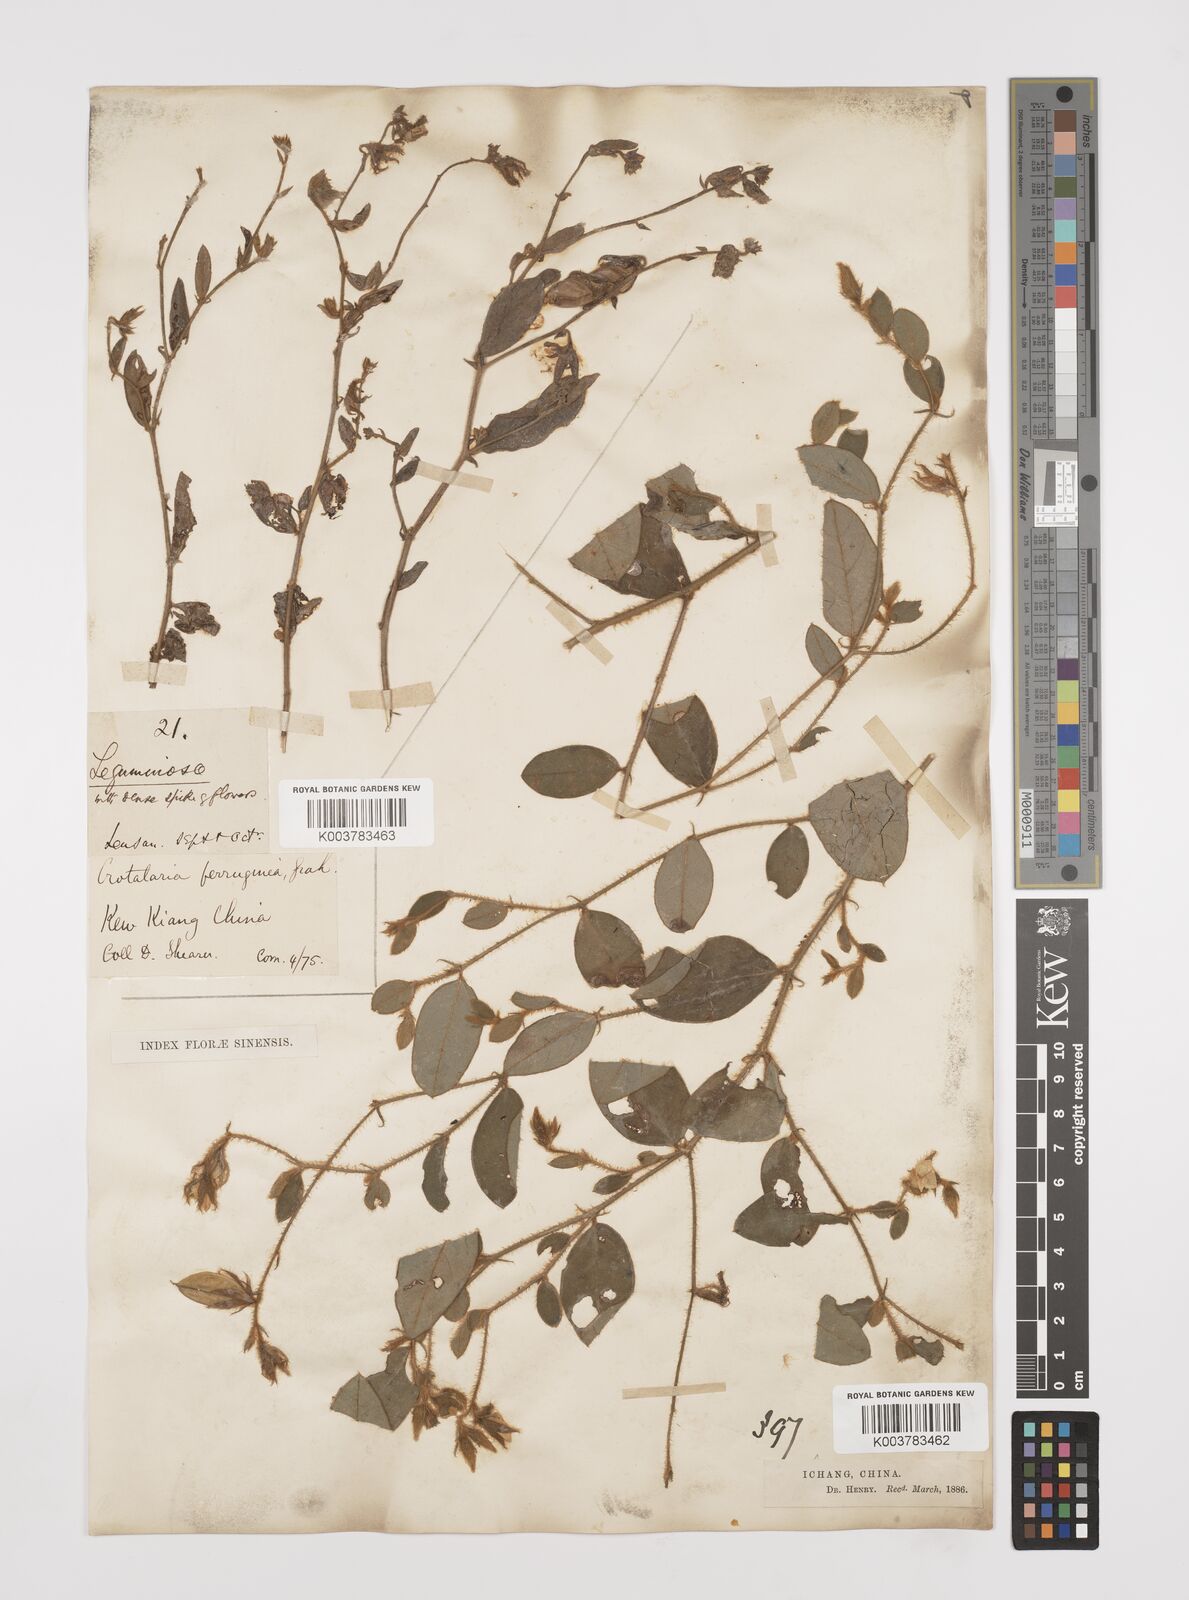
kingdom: Plantae
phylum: Tracheophyta
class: Magnoliopsida
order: Fabales
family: Fabaceae
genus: Crotalaria
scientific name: Crotalaria lejoloba
